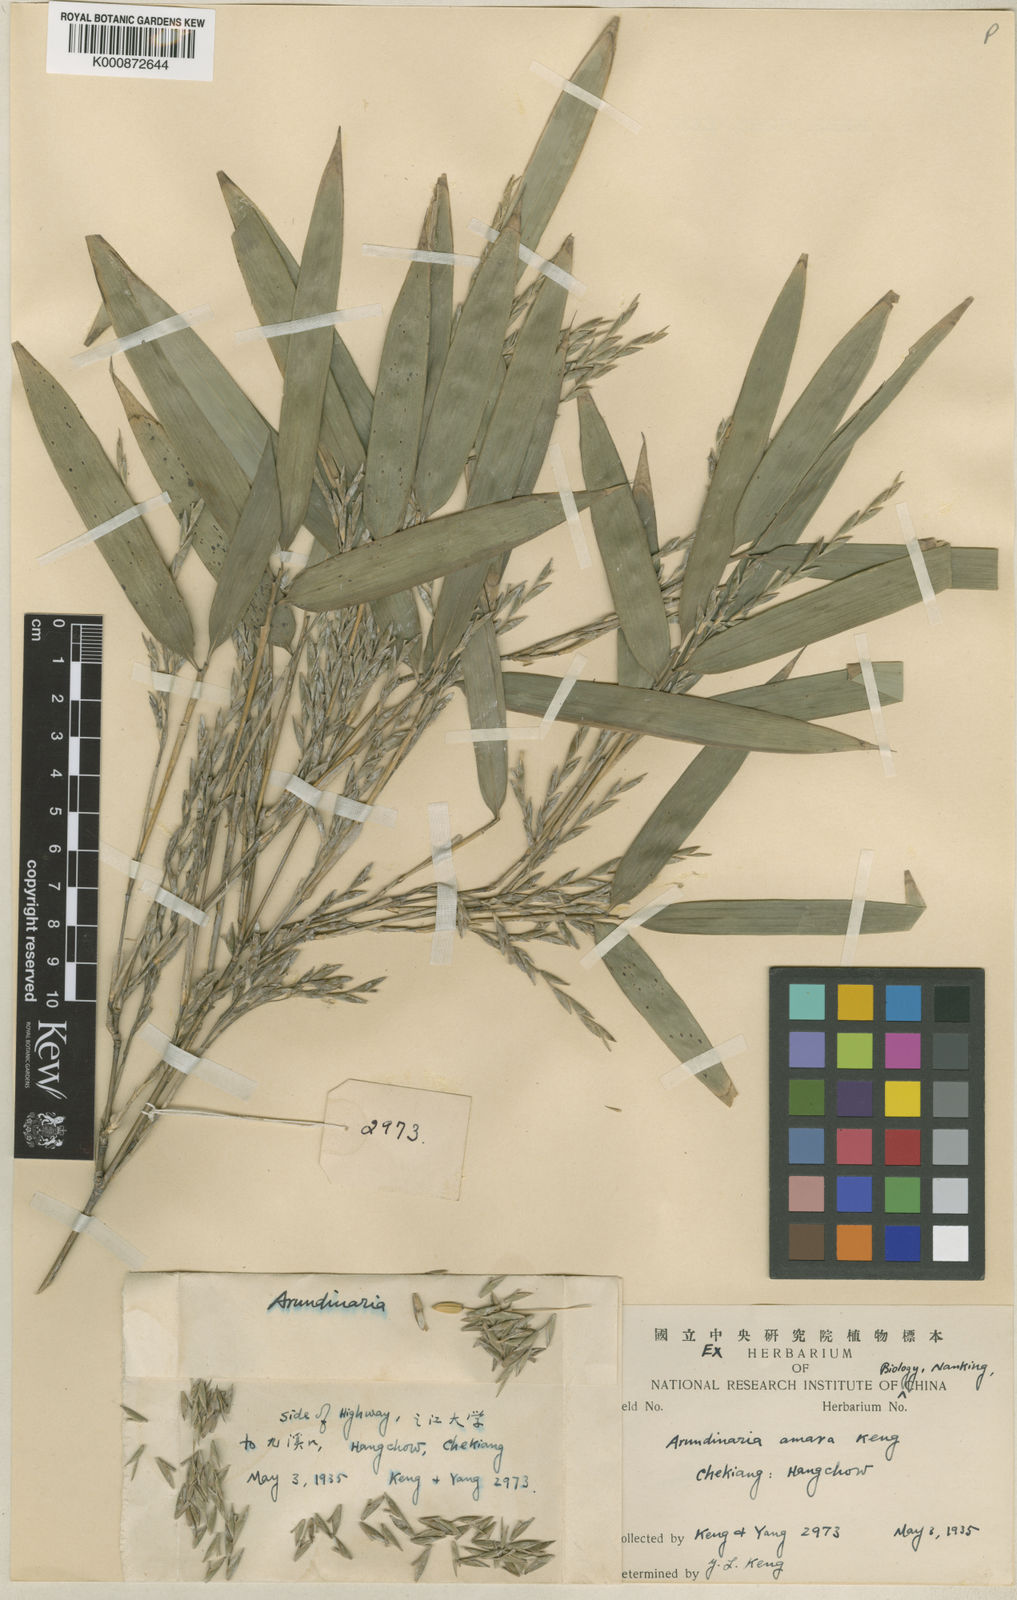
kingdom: Plantae
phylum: Tracheophyta
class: Liliopsida
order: Poales
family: Poaceae
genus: Pleioblastus
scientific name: Pleioblastus amarus
